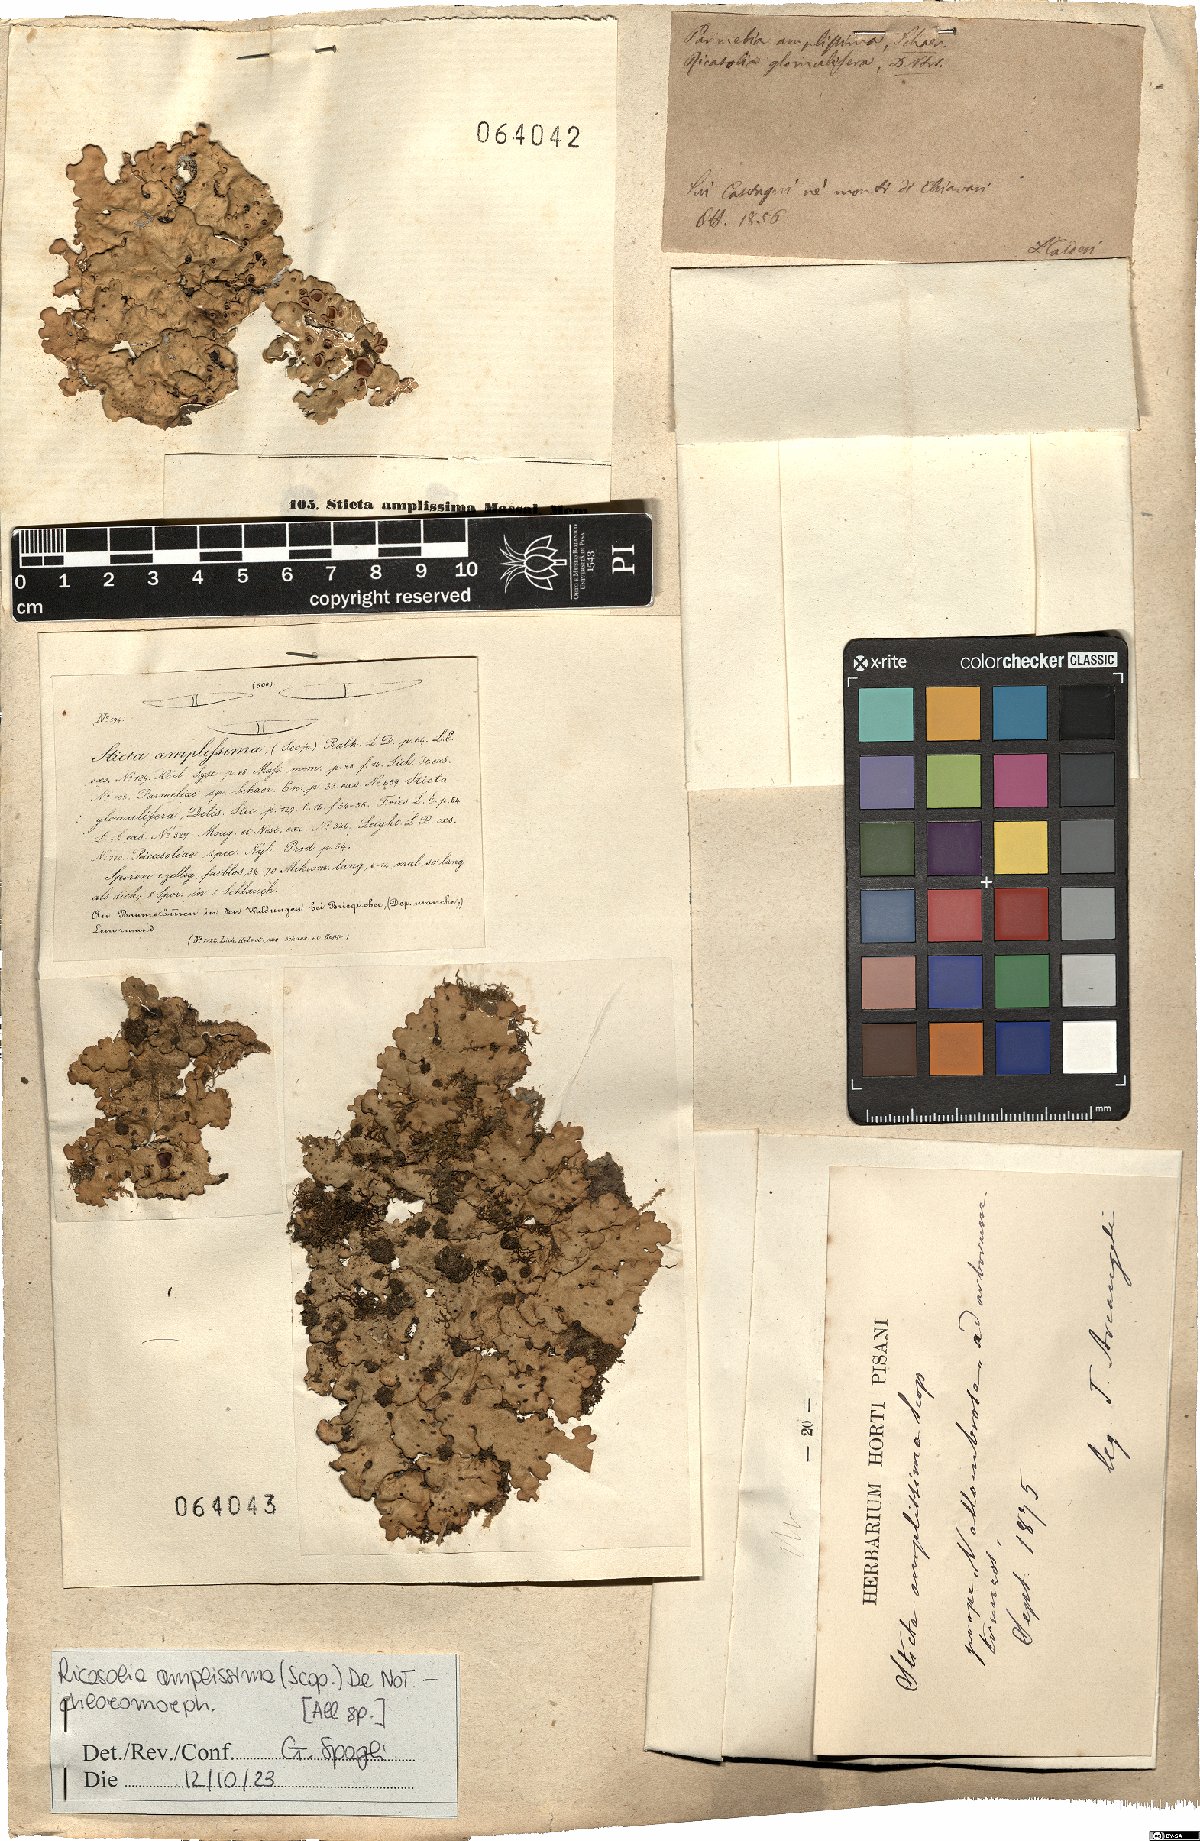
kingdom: Fungi
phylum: Ascomycota
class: Lecanoromycetes
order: Peltigerales
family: Lobariaceae
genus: Ricasolia
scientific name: Ricasolia amplissima
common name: Giant candlewax lichen
